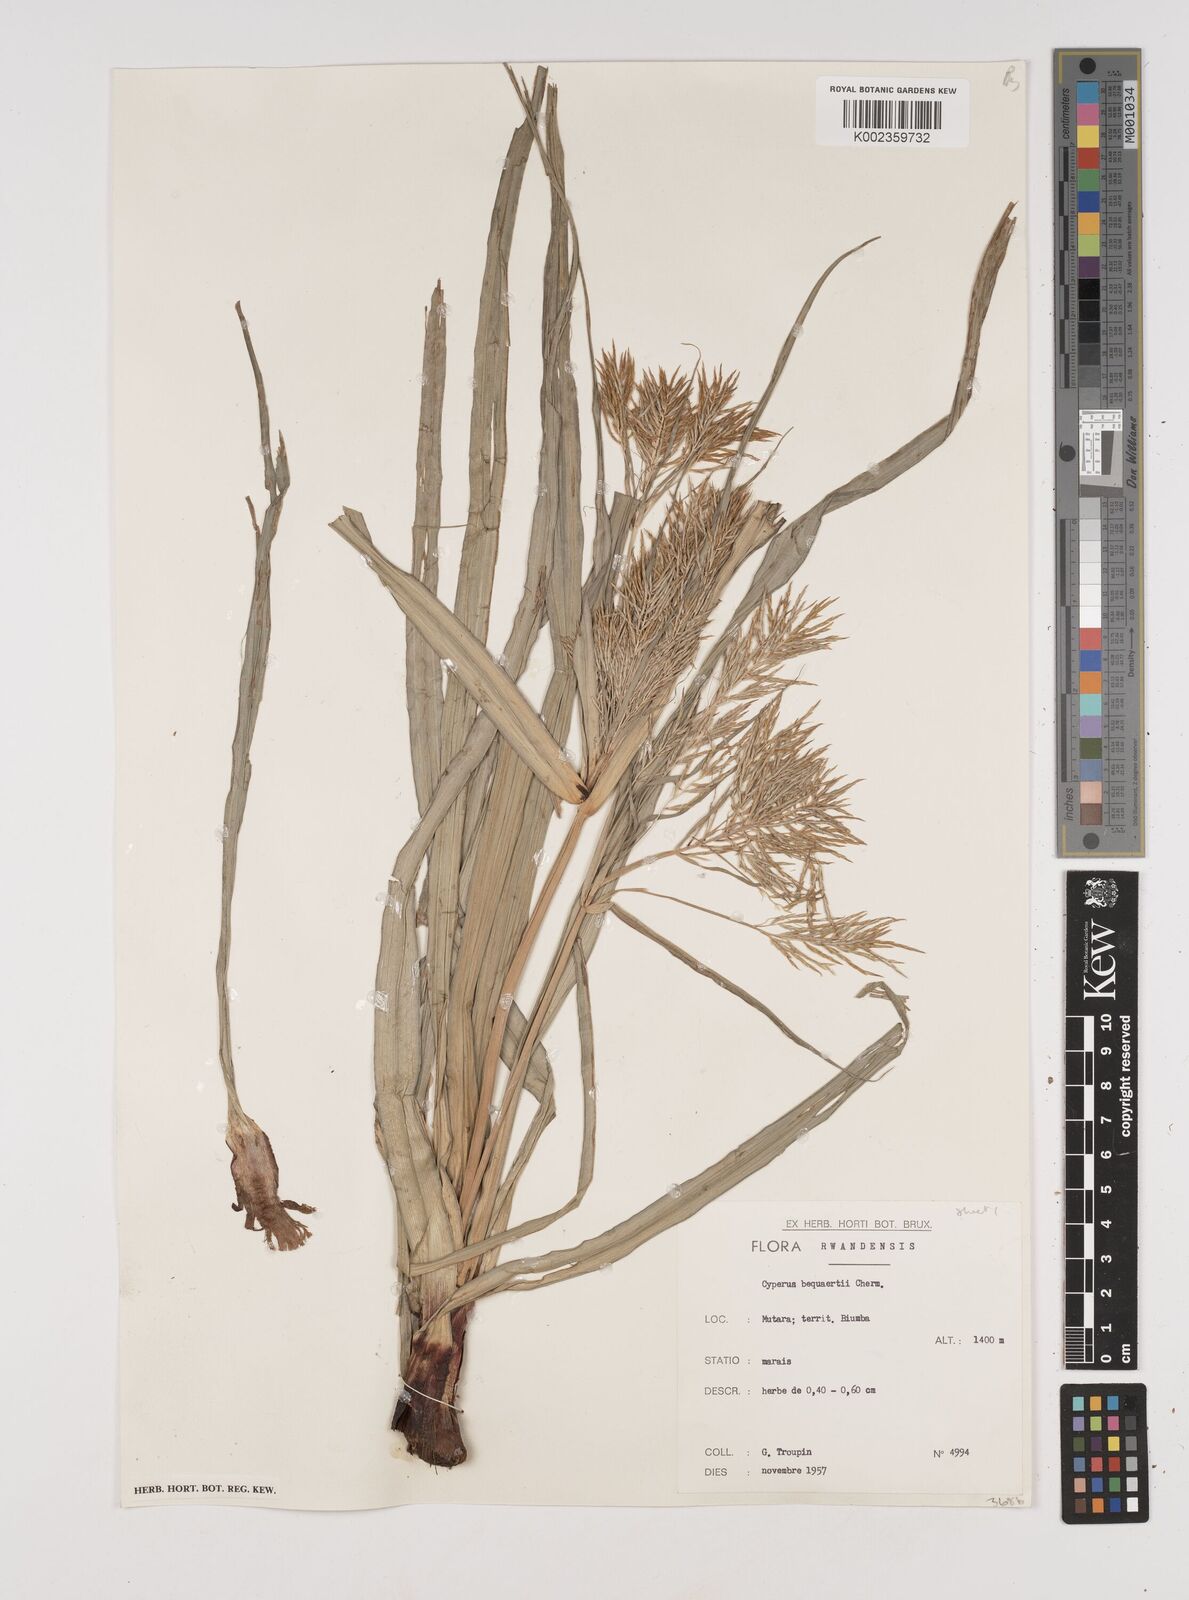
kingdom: Plantae
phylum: Tracheophyta
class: Liliopsida
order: Poales
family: Cyperaceae
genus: Cyperus
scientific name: Cyperus ferrugineoviridis
